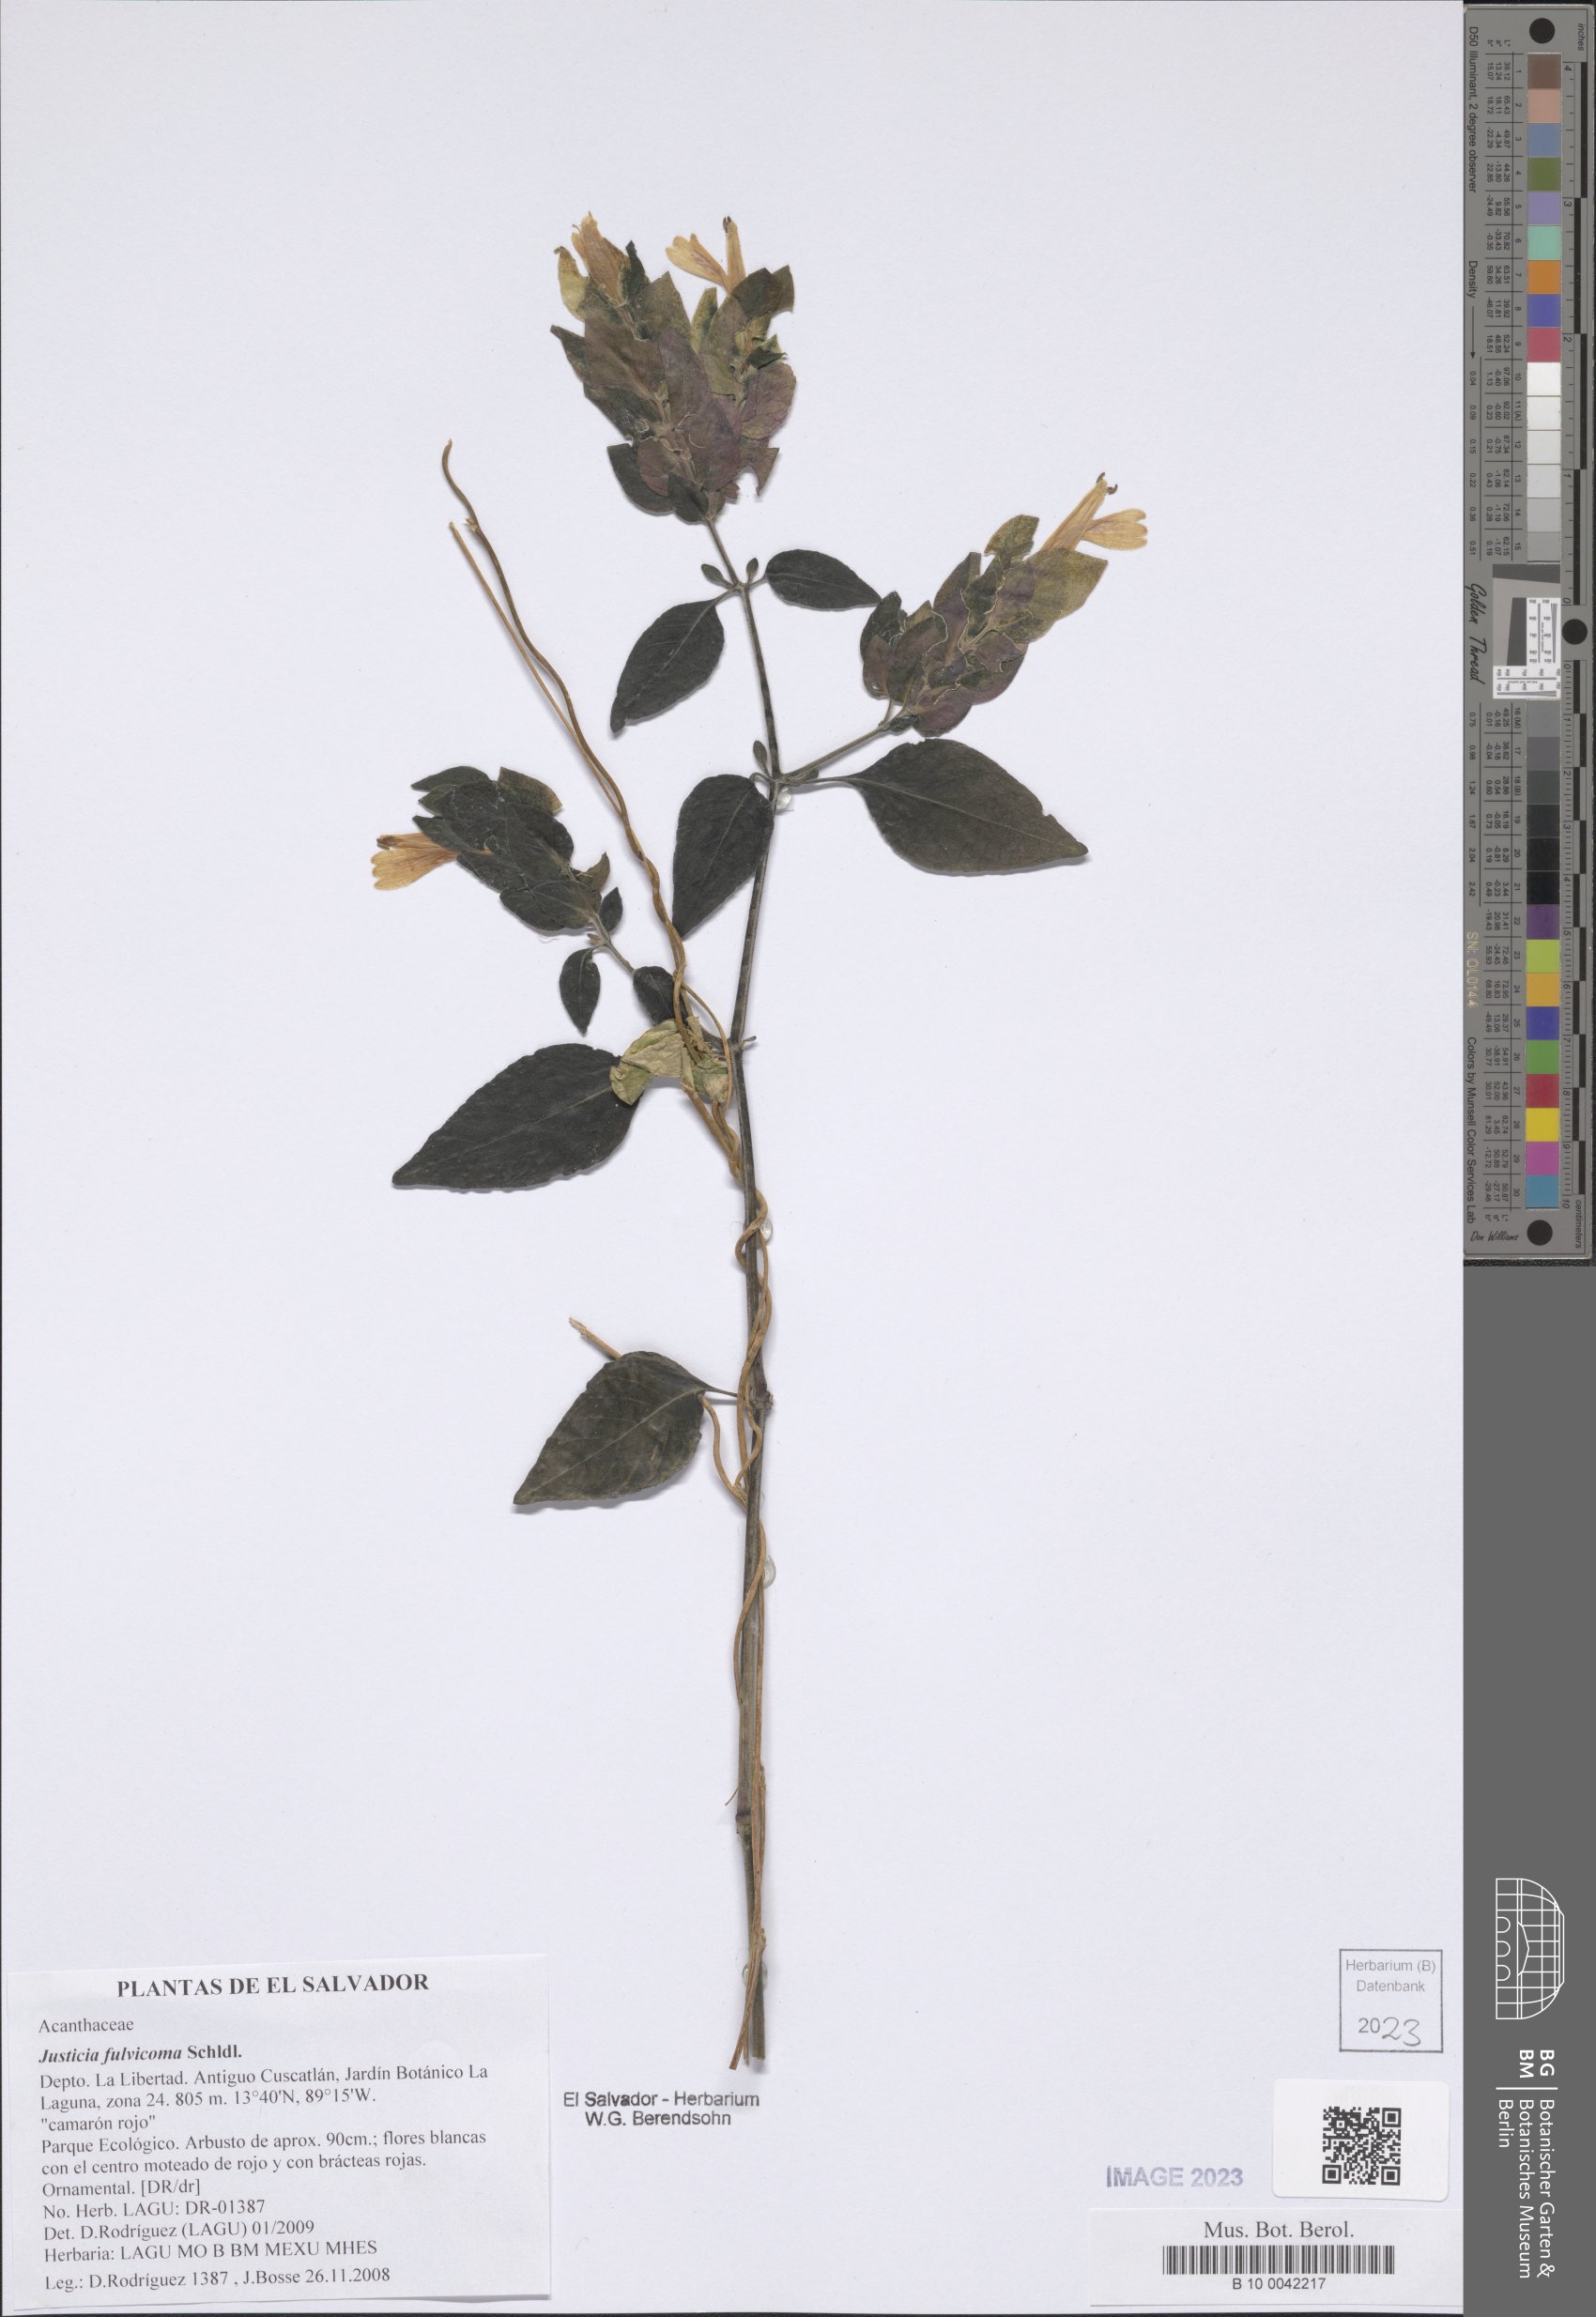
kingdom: Plantae
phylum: Tracheophyta
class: Magnoliopsida
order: Lamiales
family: Acanthaceae
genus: Justicia
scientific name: Justicia brandegeeana
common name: Shrimpplant
